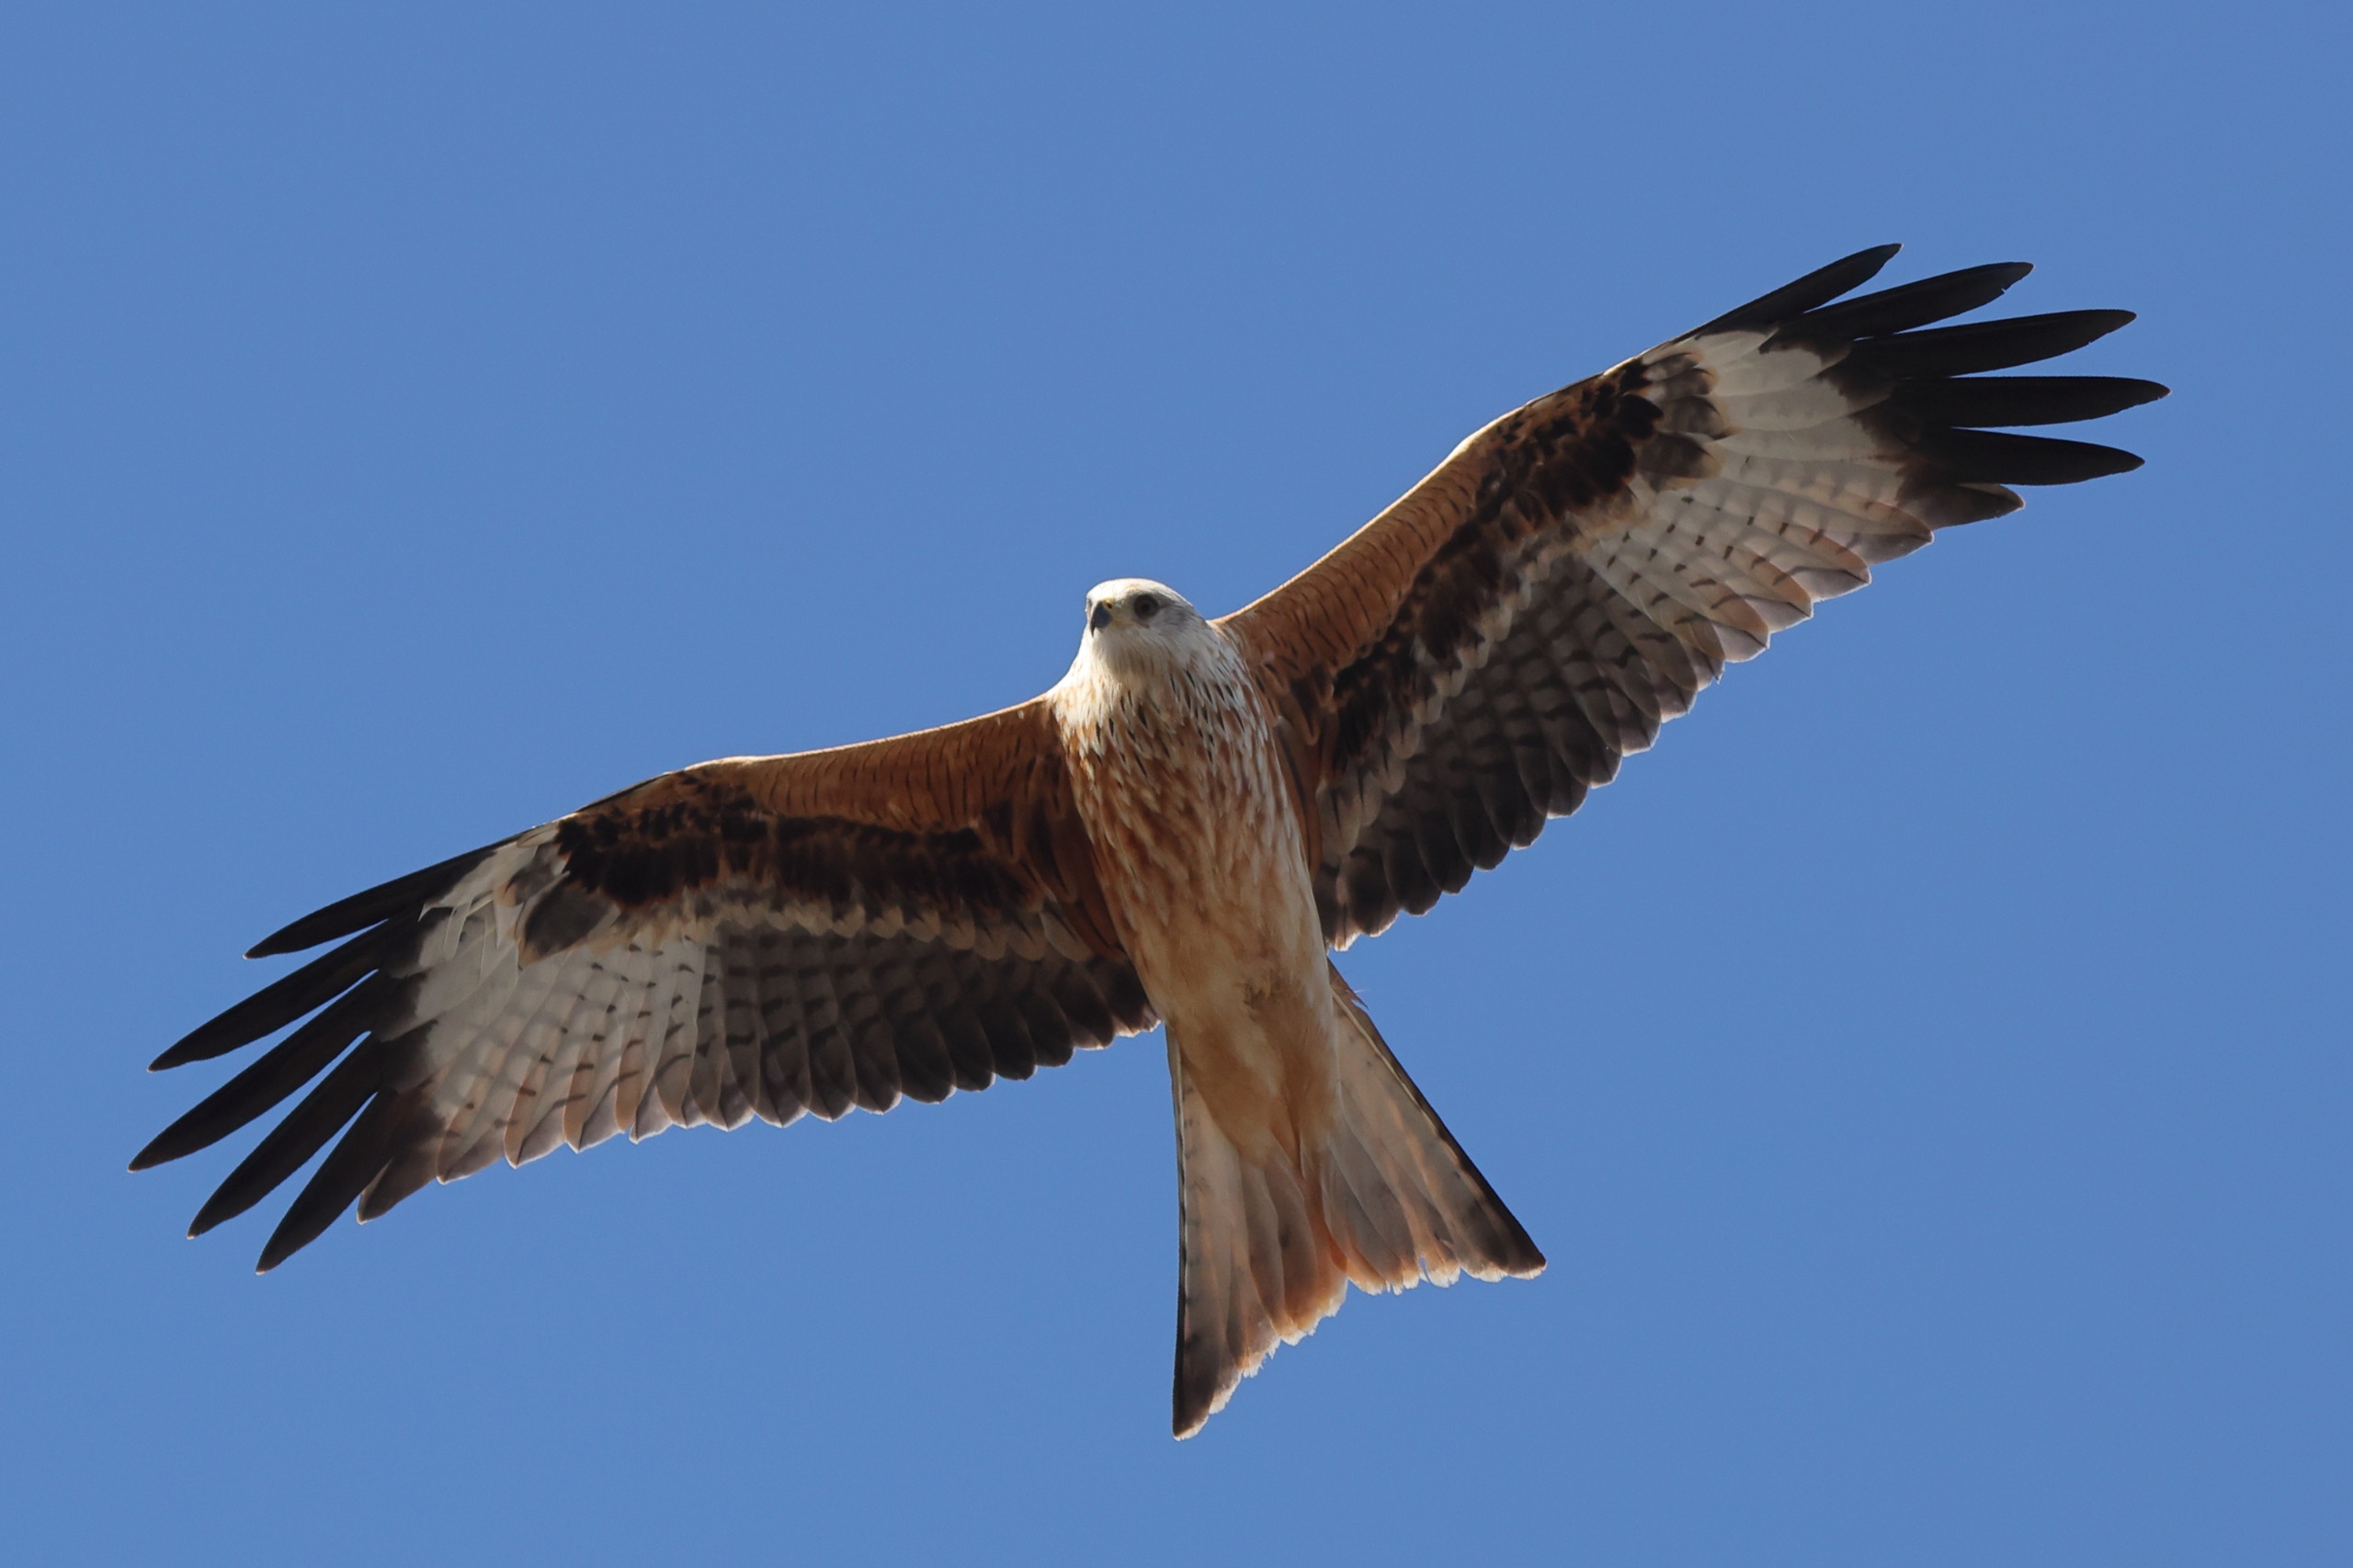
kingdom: Animalia
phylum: Chordata
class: Aves
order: Accipitriformes
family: Accipitridae
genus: Milvus
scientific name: Milvus milvus
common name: Rød glente
